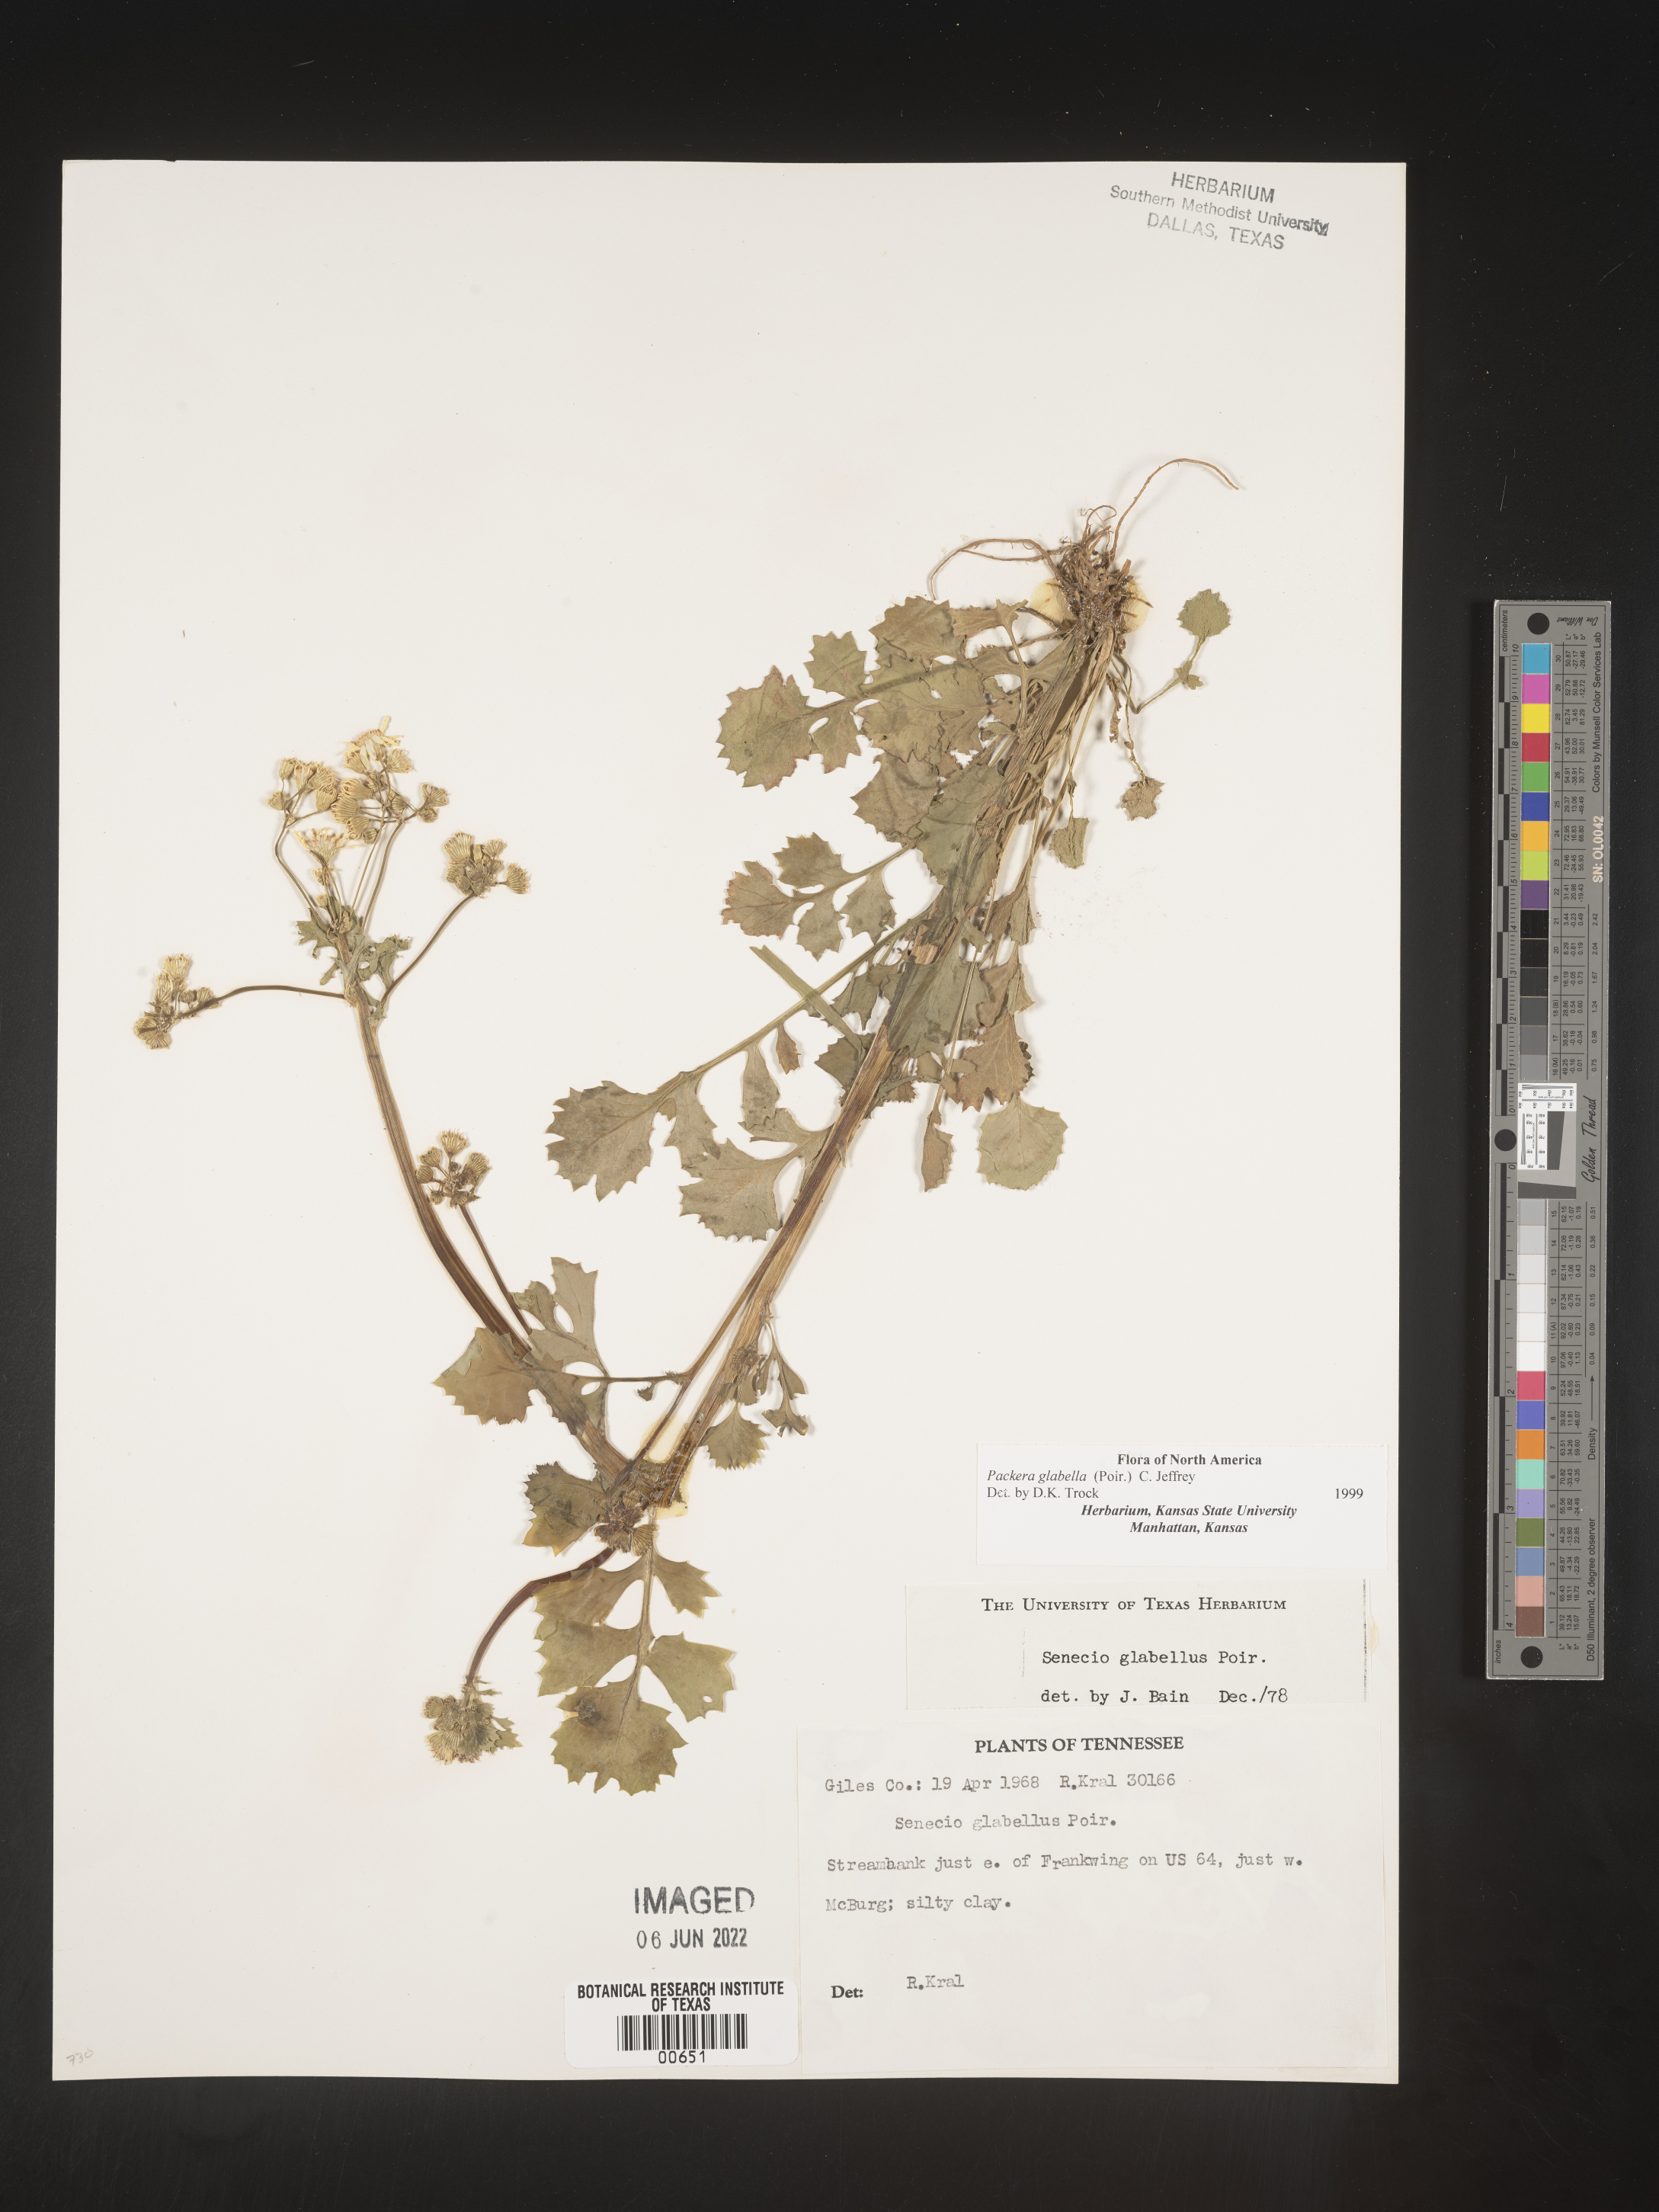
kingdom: Plantae
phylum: Tracheophyta
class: Magnoliopsida
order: Asterales
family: Asteraceae
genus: Packera
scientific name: Packera glabella
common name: Butterweed
